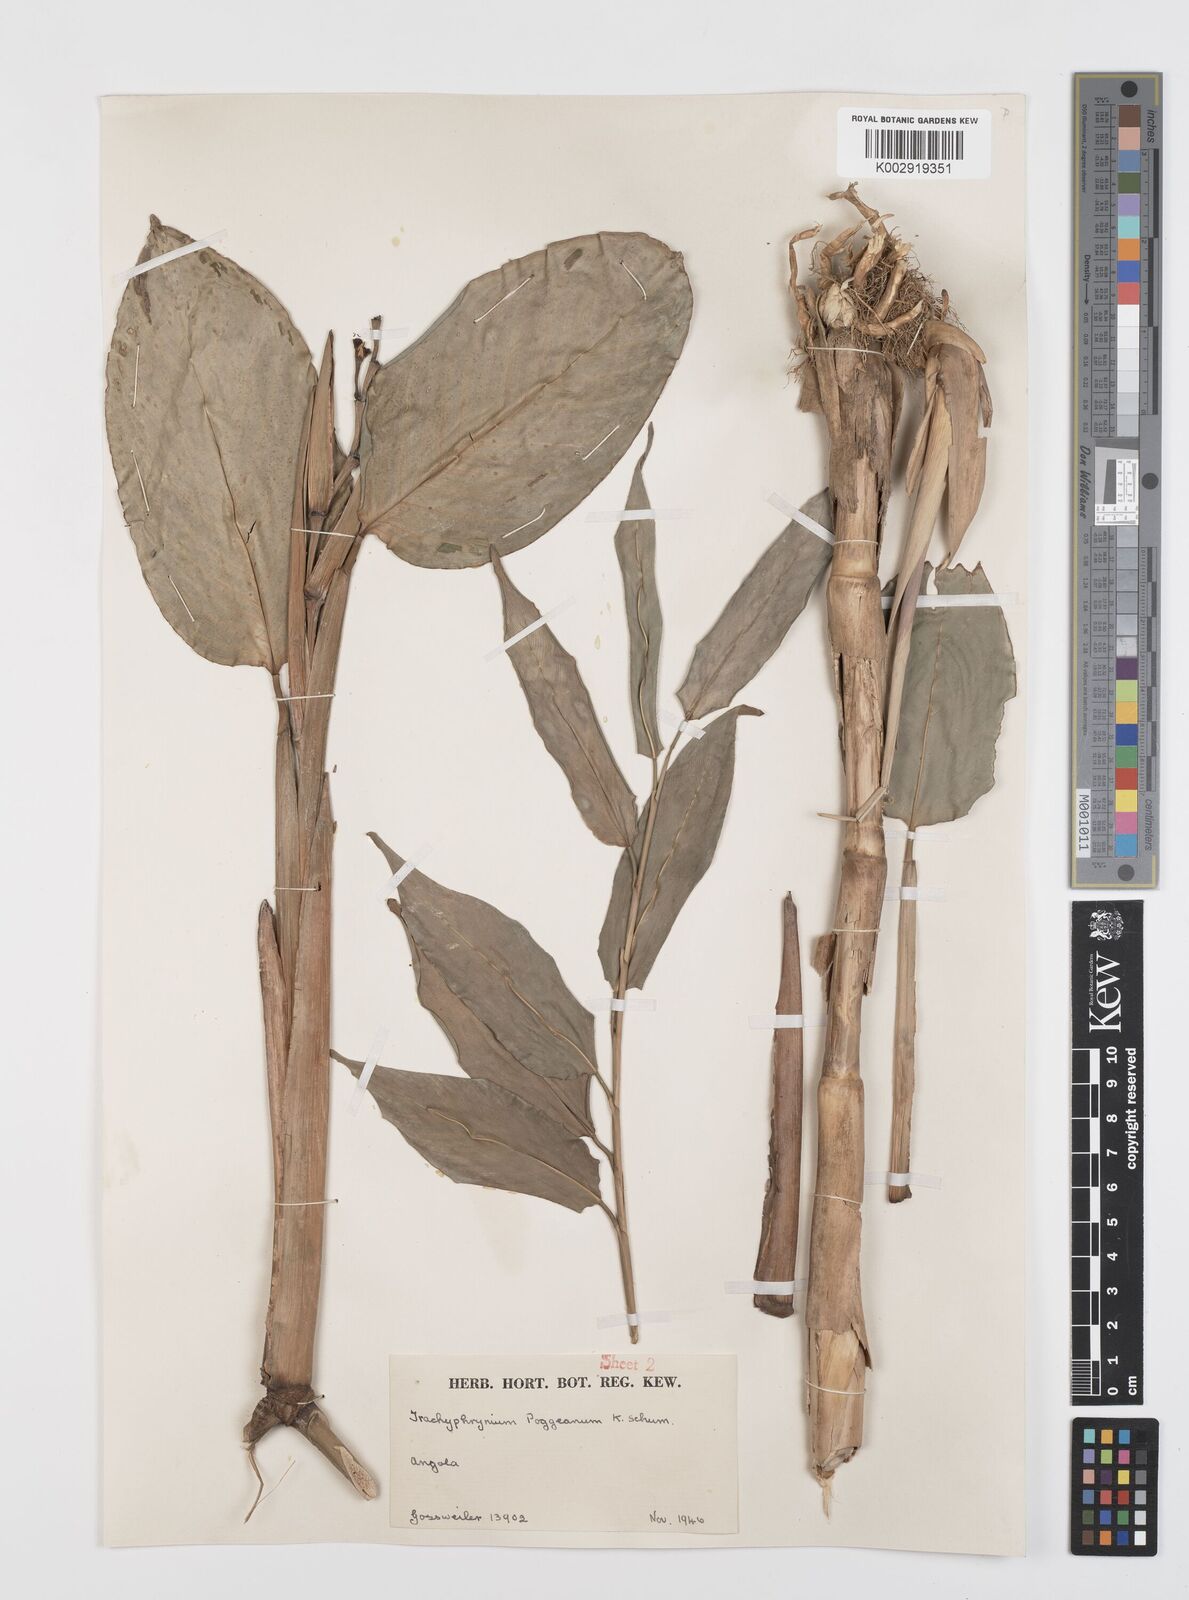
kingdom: Plantae
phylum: Tracheophyta
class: Liliopsida
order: Zingiberales
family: Marantaceae
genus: Hypselodelphys
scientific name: Hypselodelphys scandens
